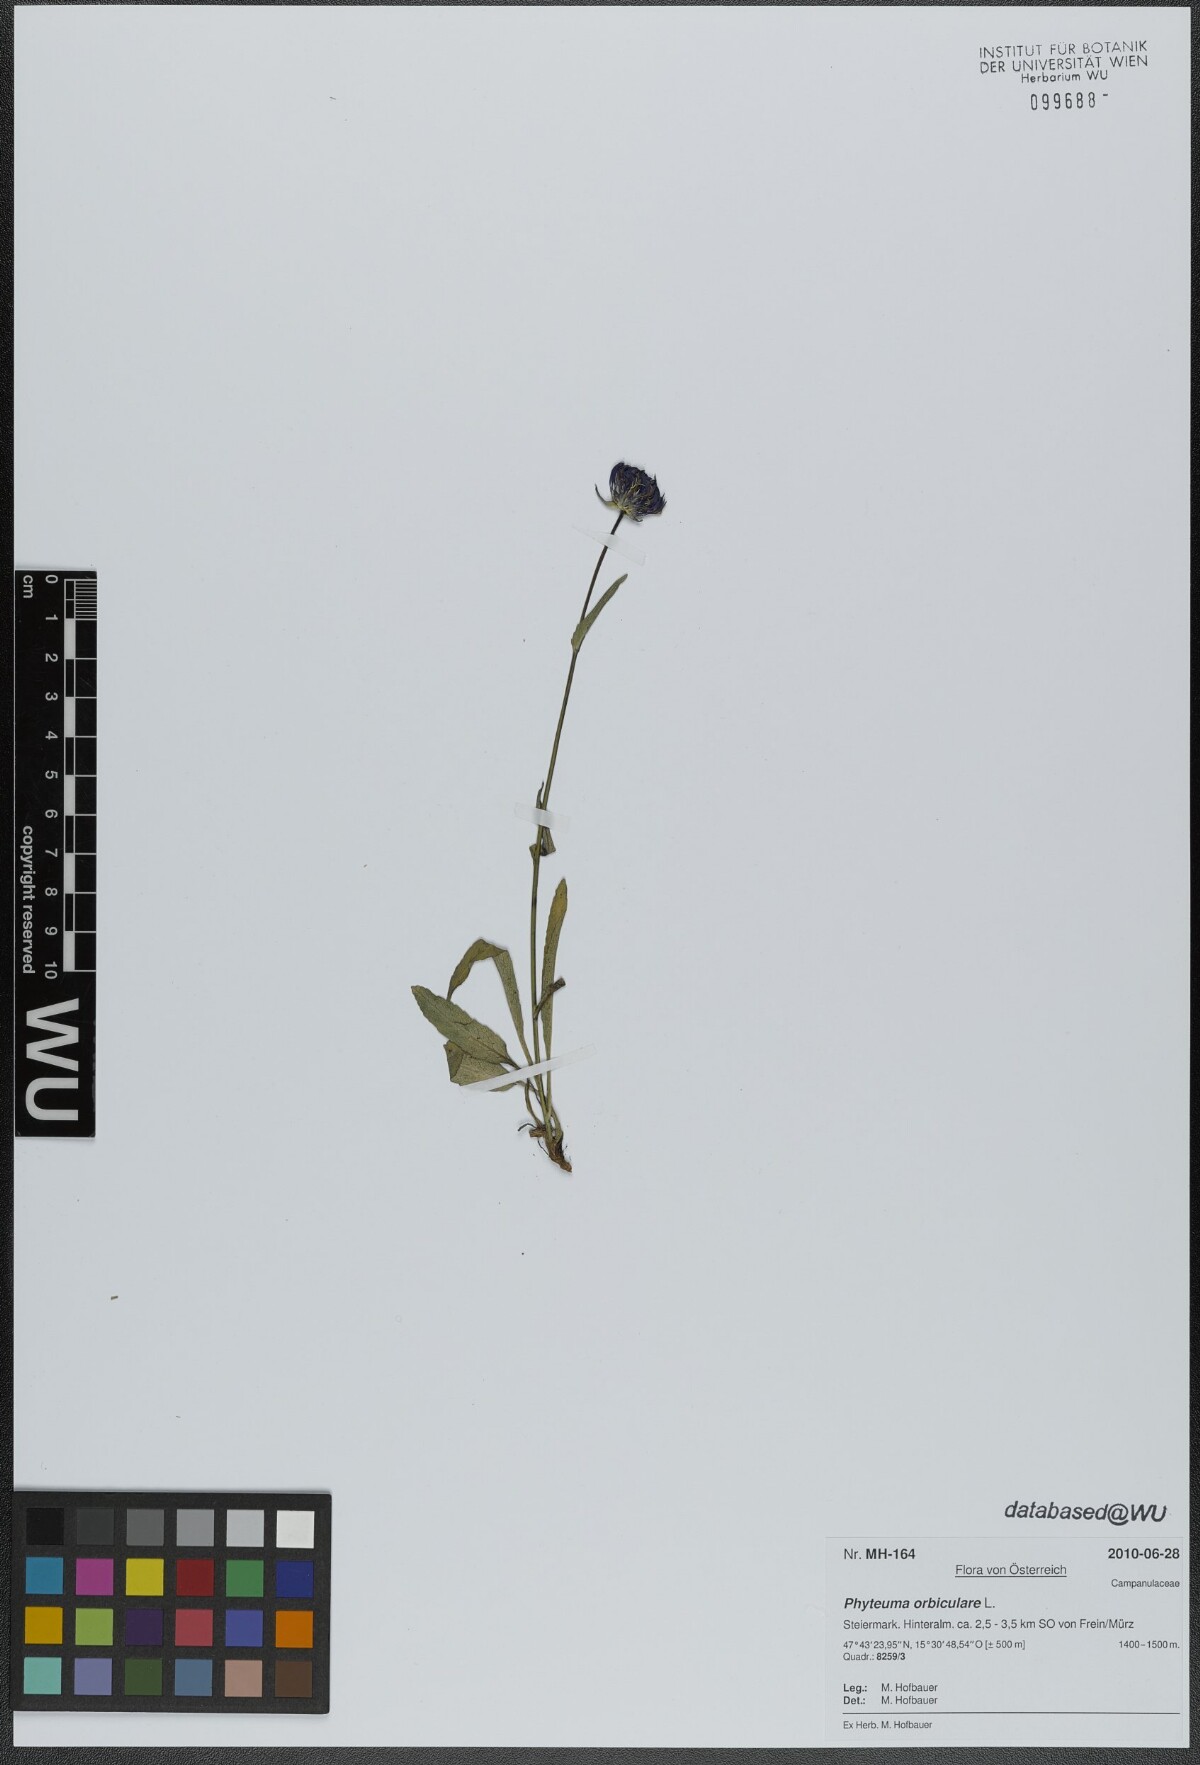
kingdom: Plantae
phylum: Tracheophyta
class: Magnoliopsida
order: Asterales
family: Campanulaceae
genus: Phyteuma
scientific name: Phyteuma orbiculare
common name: Round-headed rampion
